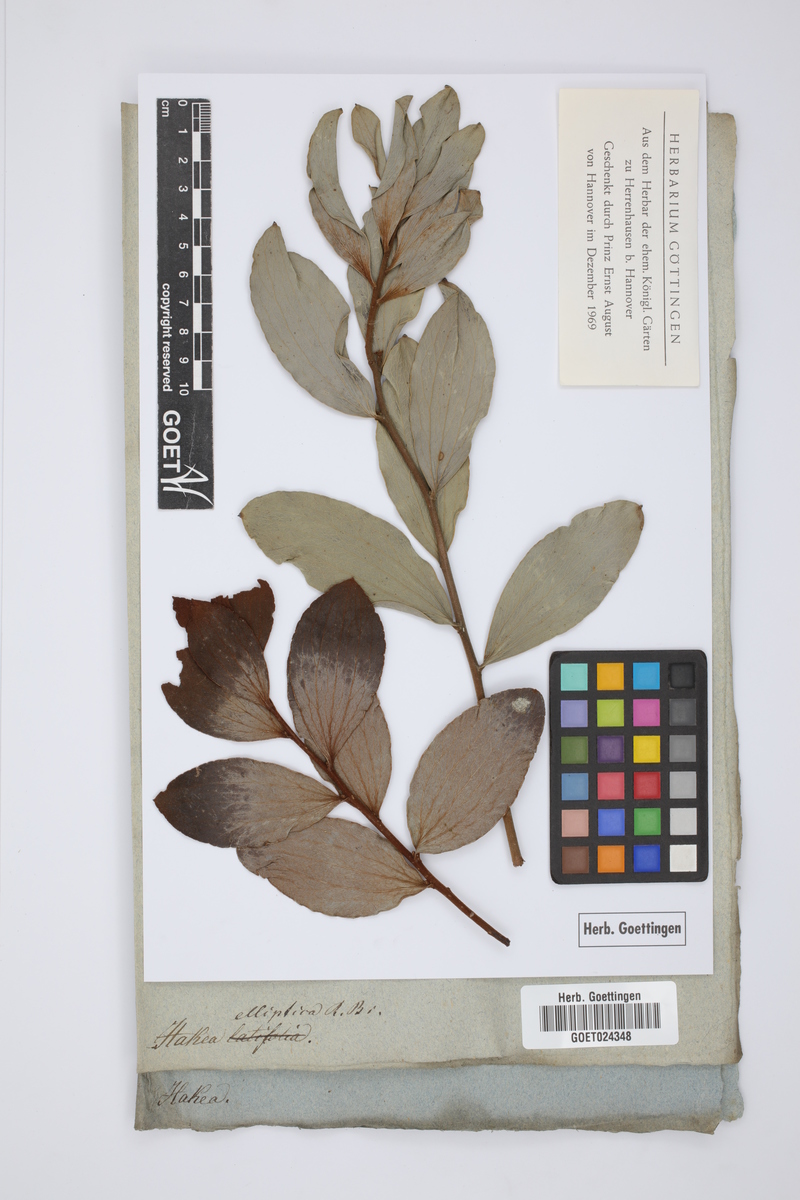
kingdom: Plantae
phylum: Tracheophyta
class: Magnoliopsida
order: Proteales
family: Proteaceae
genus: Hakea
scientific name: Hakea elliptica
